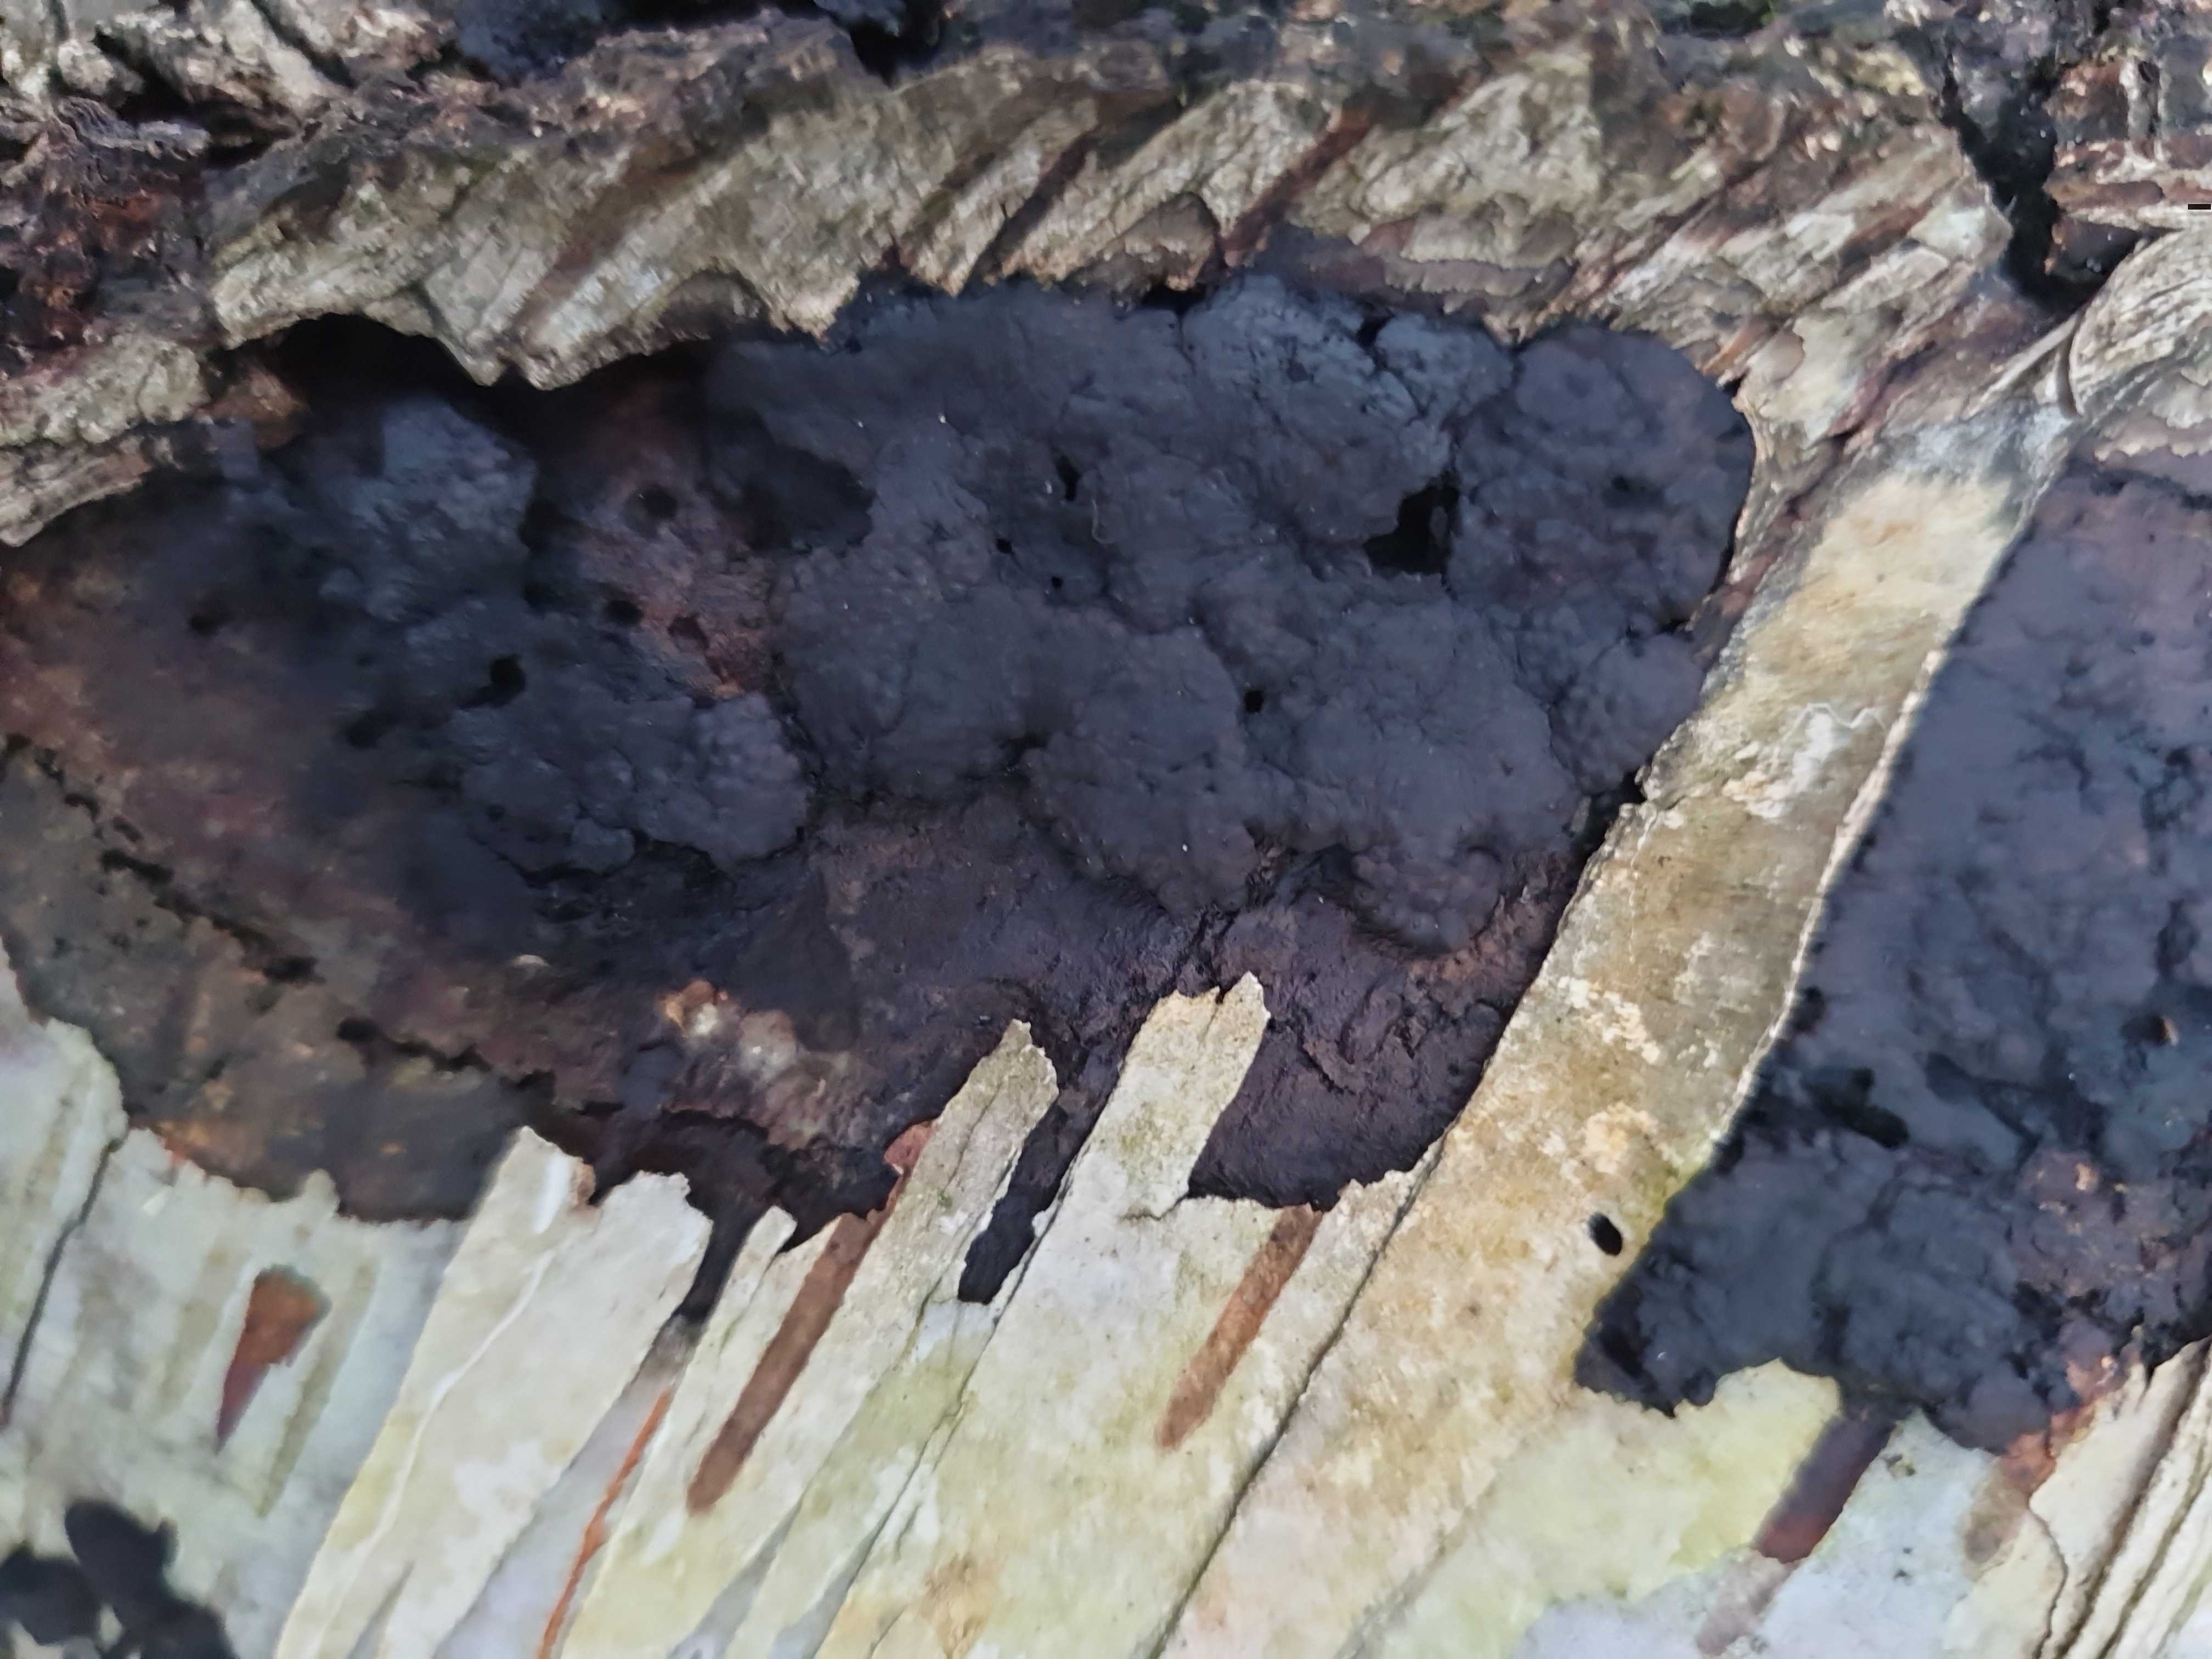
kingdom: Fungi
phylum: Ascomycota
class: Sordariomycetes
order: Xylariales
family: Hypoxylaceae
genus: Jackrogersella
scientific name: Jackrogersella multiformis
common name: foranderlig kulbær
